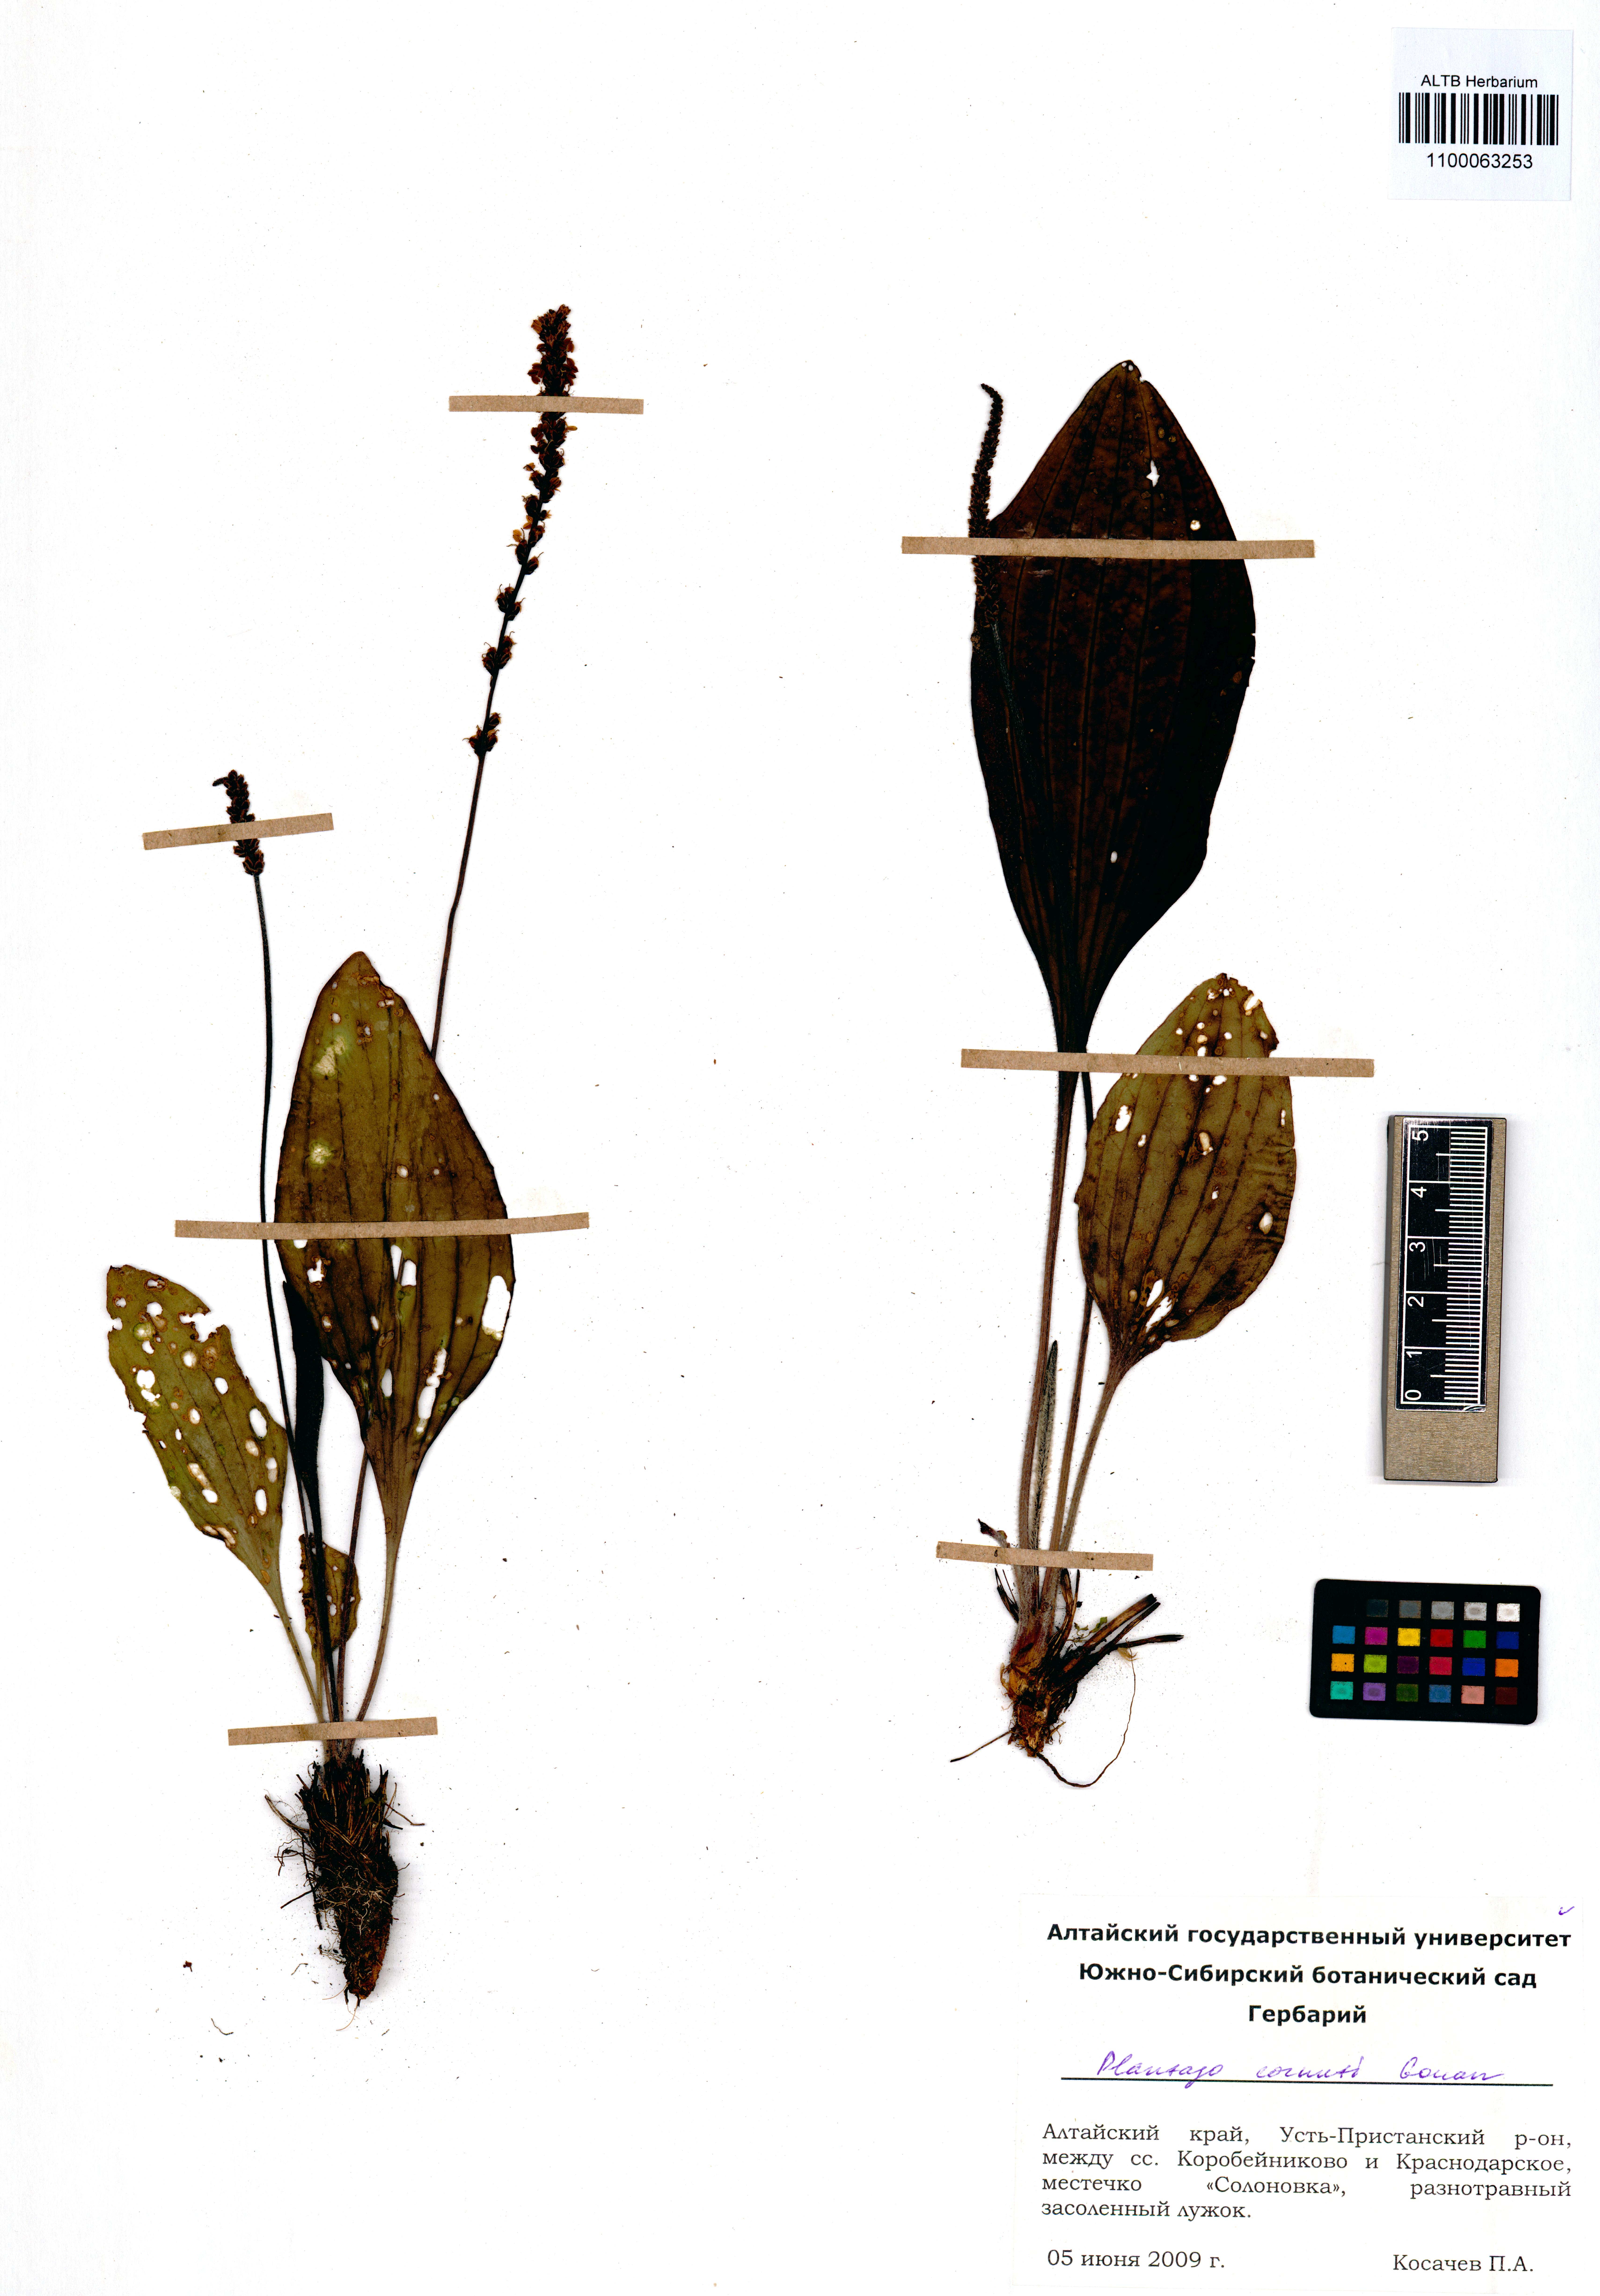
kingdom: Plantae
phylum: Tracheophyta
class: Magnoliopsida
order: Lamiales
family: Plantaginaceae
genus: Plantago
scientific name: Plantago cornuti
